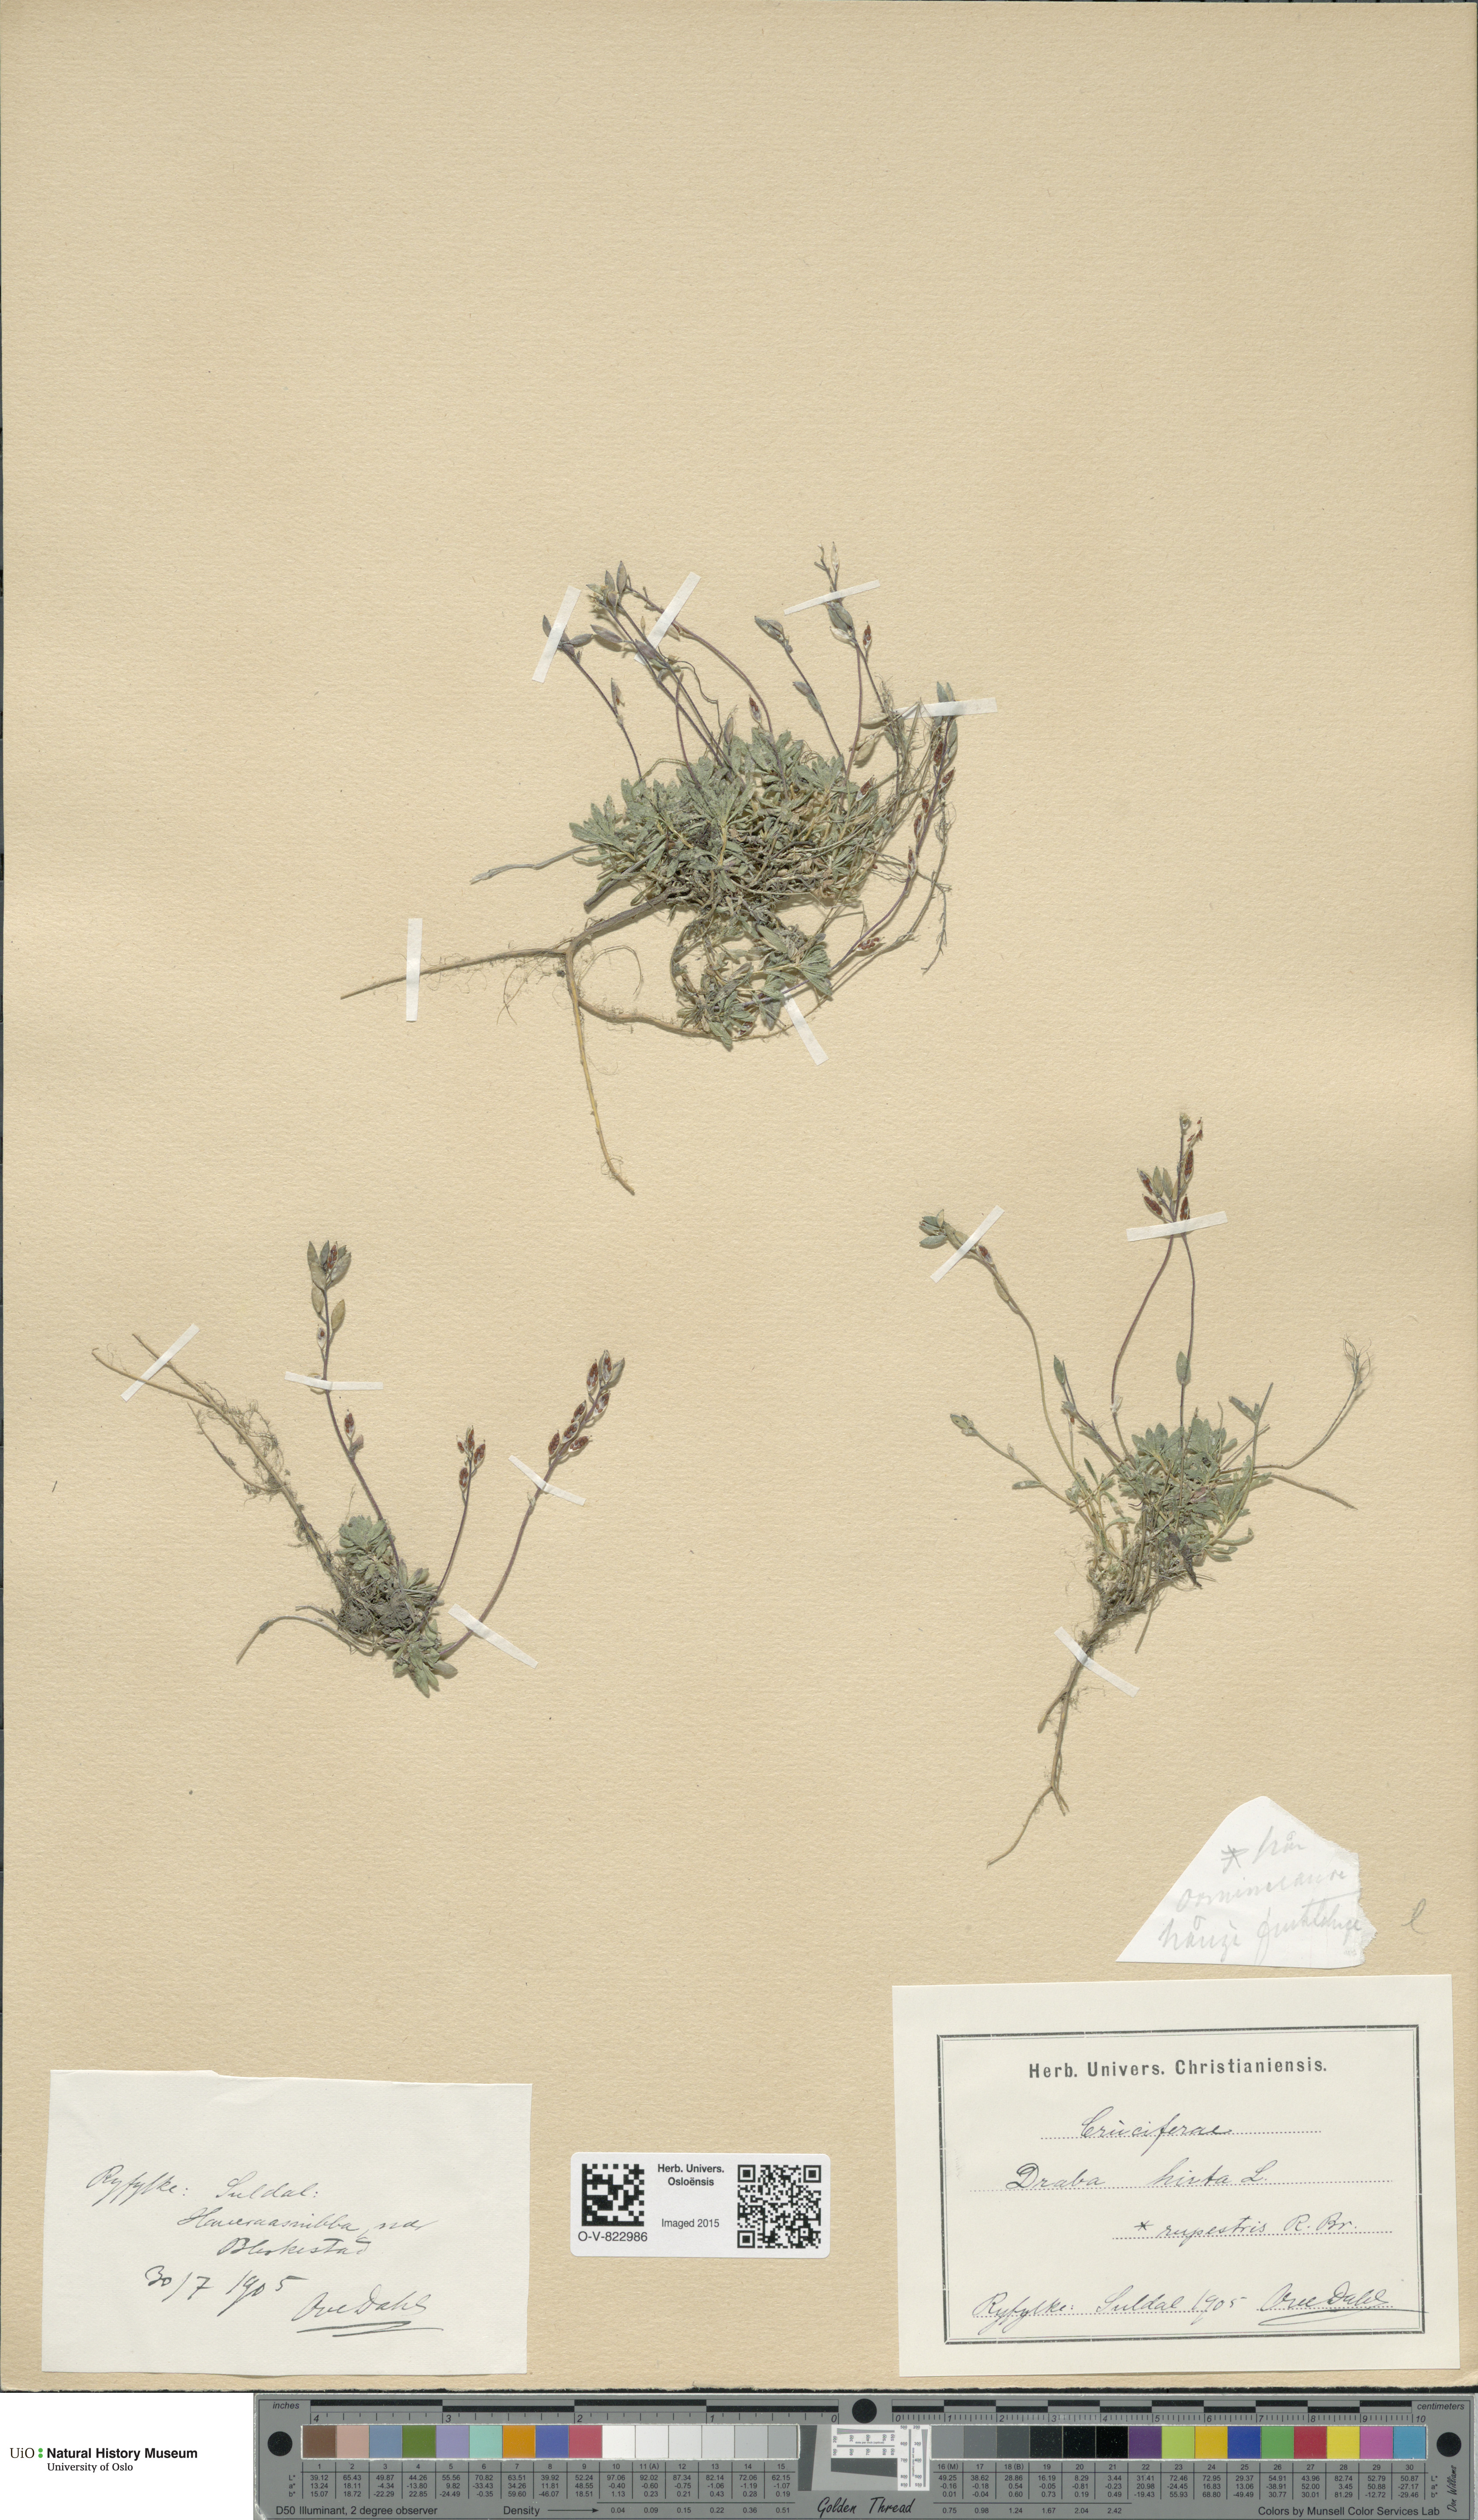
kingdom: Plantae
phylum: Tracheophyta
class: Magnoliopsida
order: Brassicales
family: Brassicaceae
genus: Draba
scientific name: Draba norvegica
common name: Rock whitlowgrass
